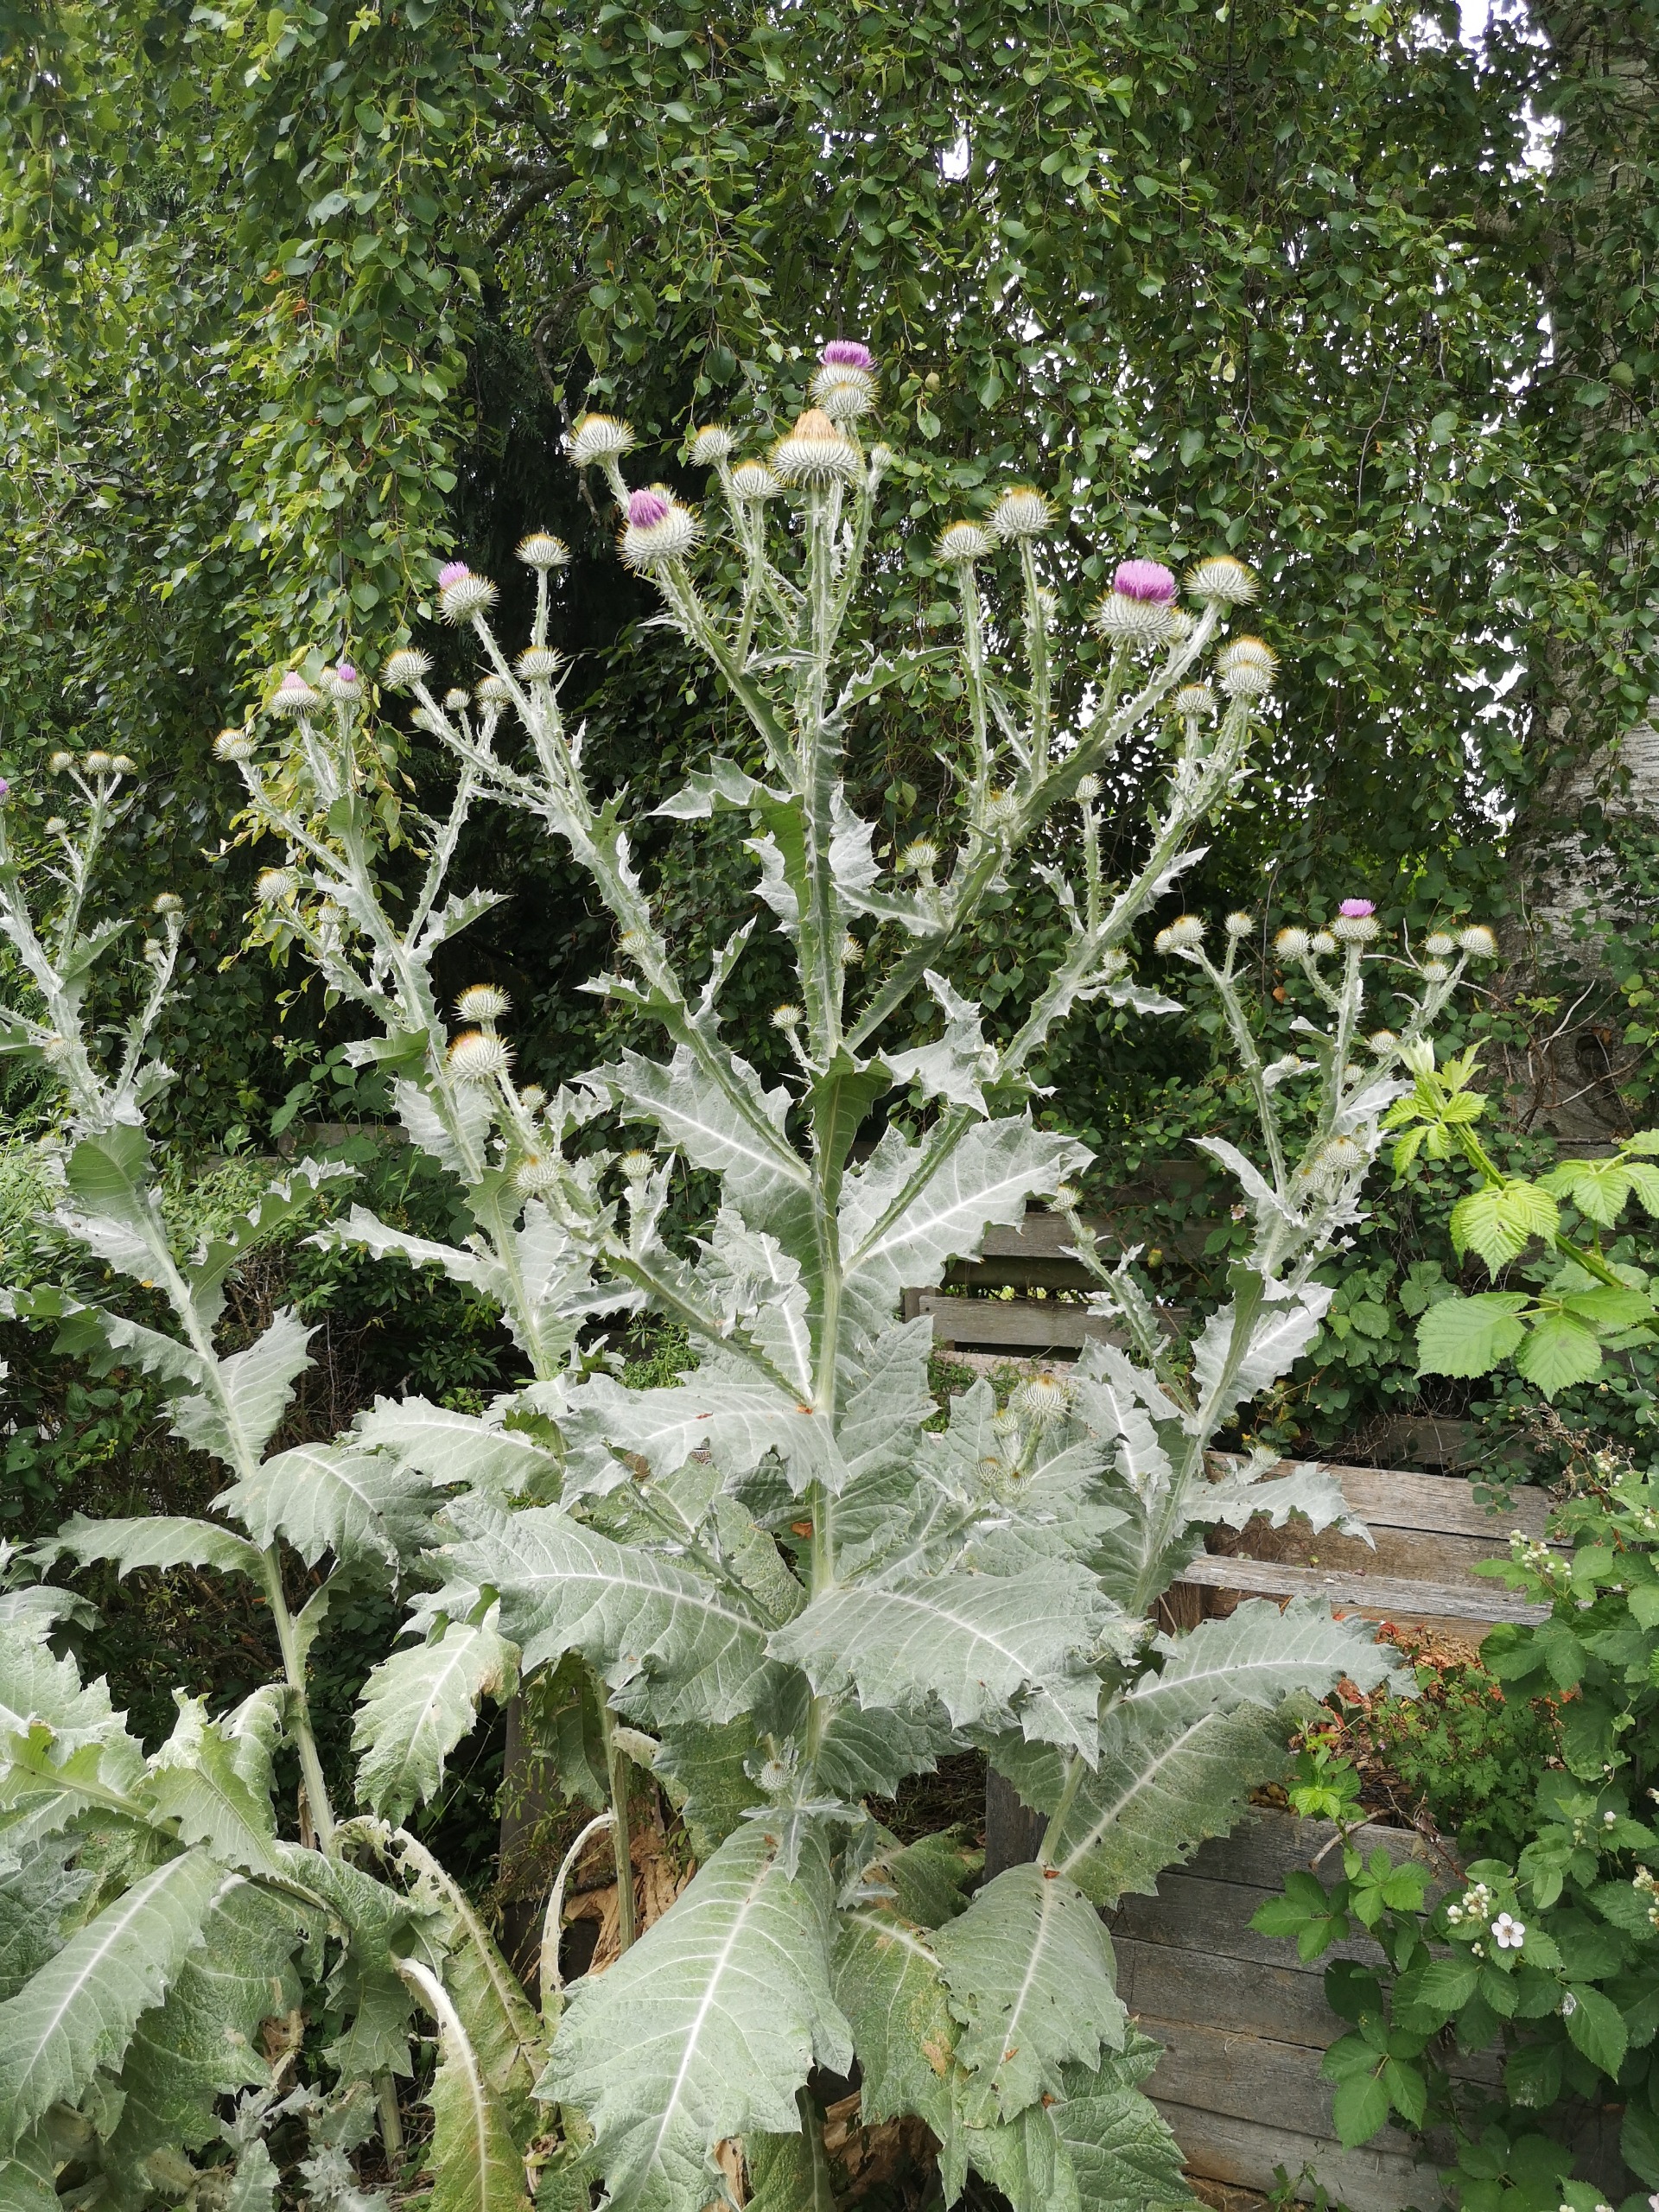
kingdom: Plantae
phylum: Tracheophyta
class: Magnoliopsida
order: Asterales
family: Asteraceae
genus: Onopordum
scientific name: Onopordum acanthium
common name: Æselfoder
